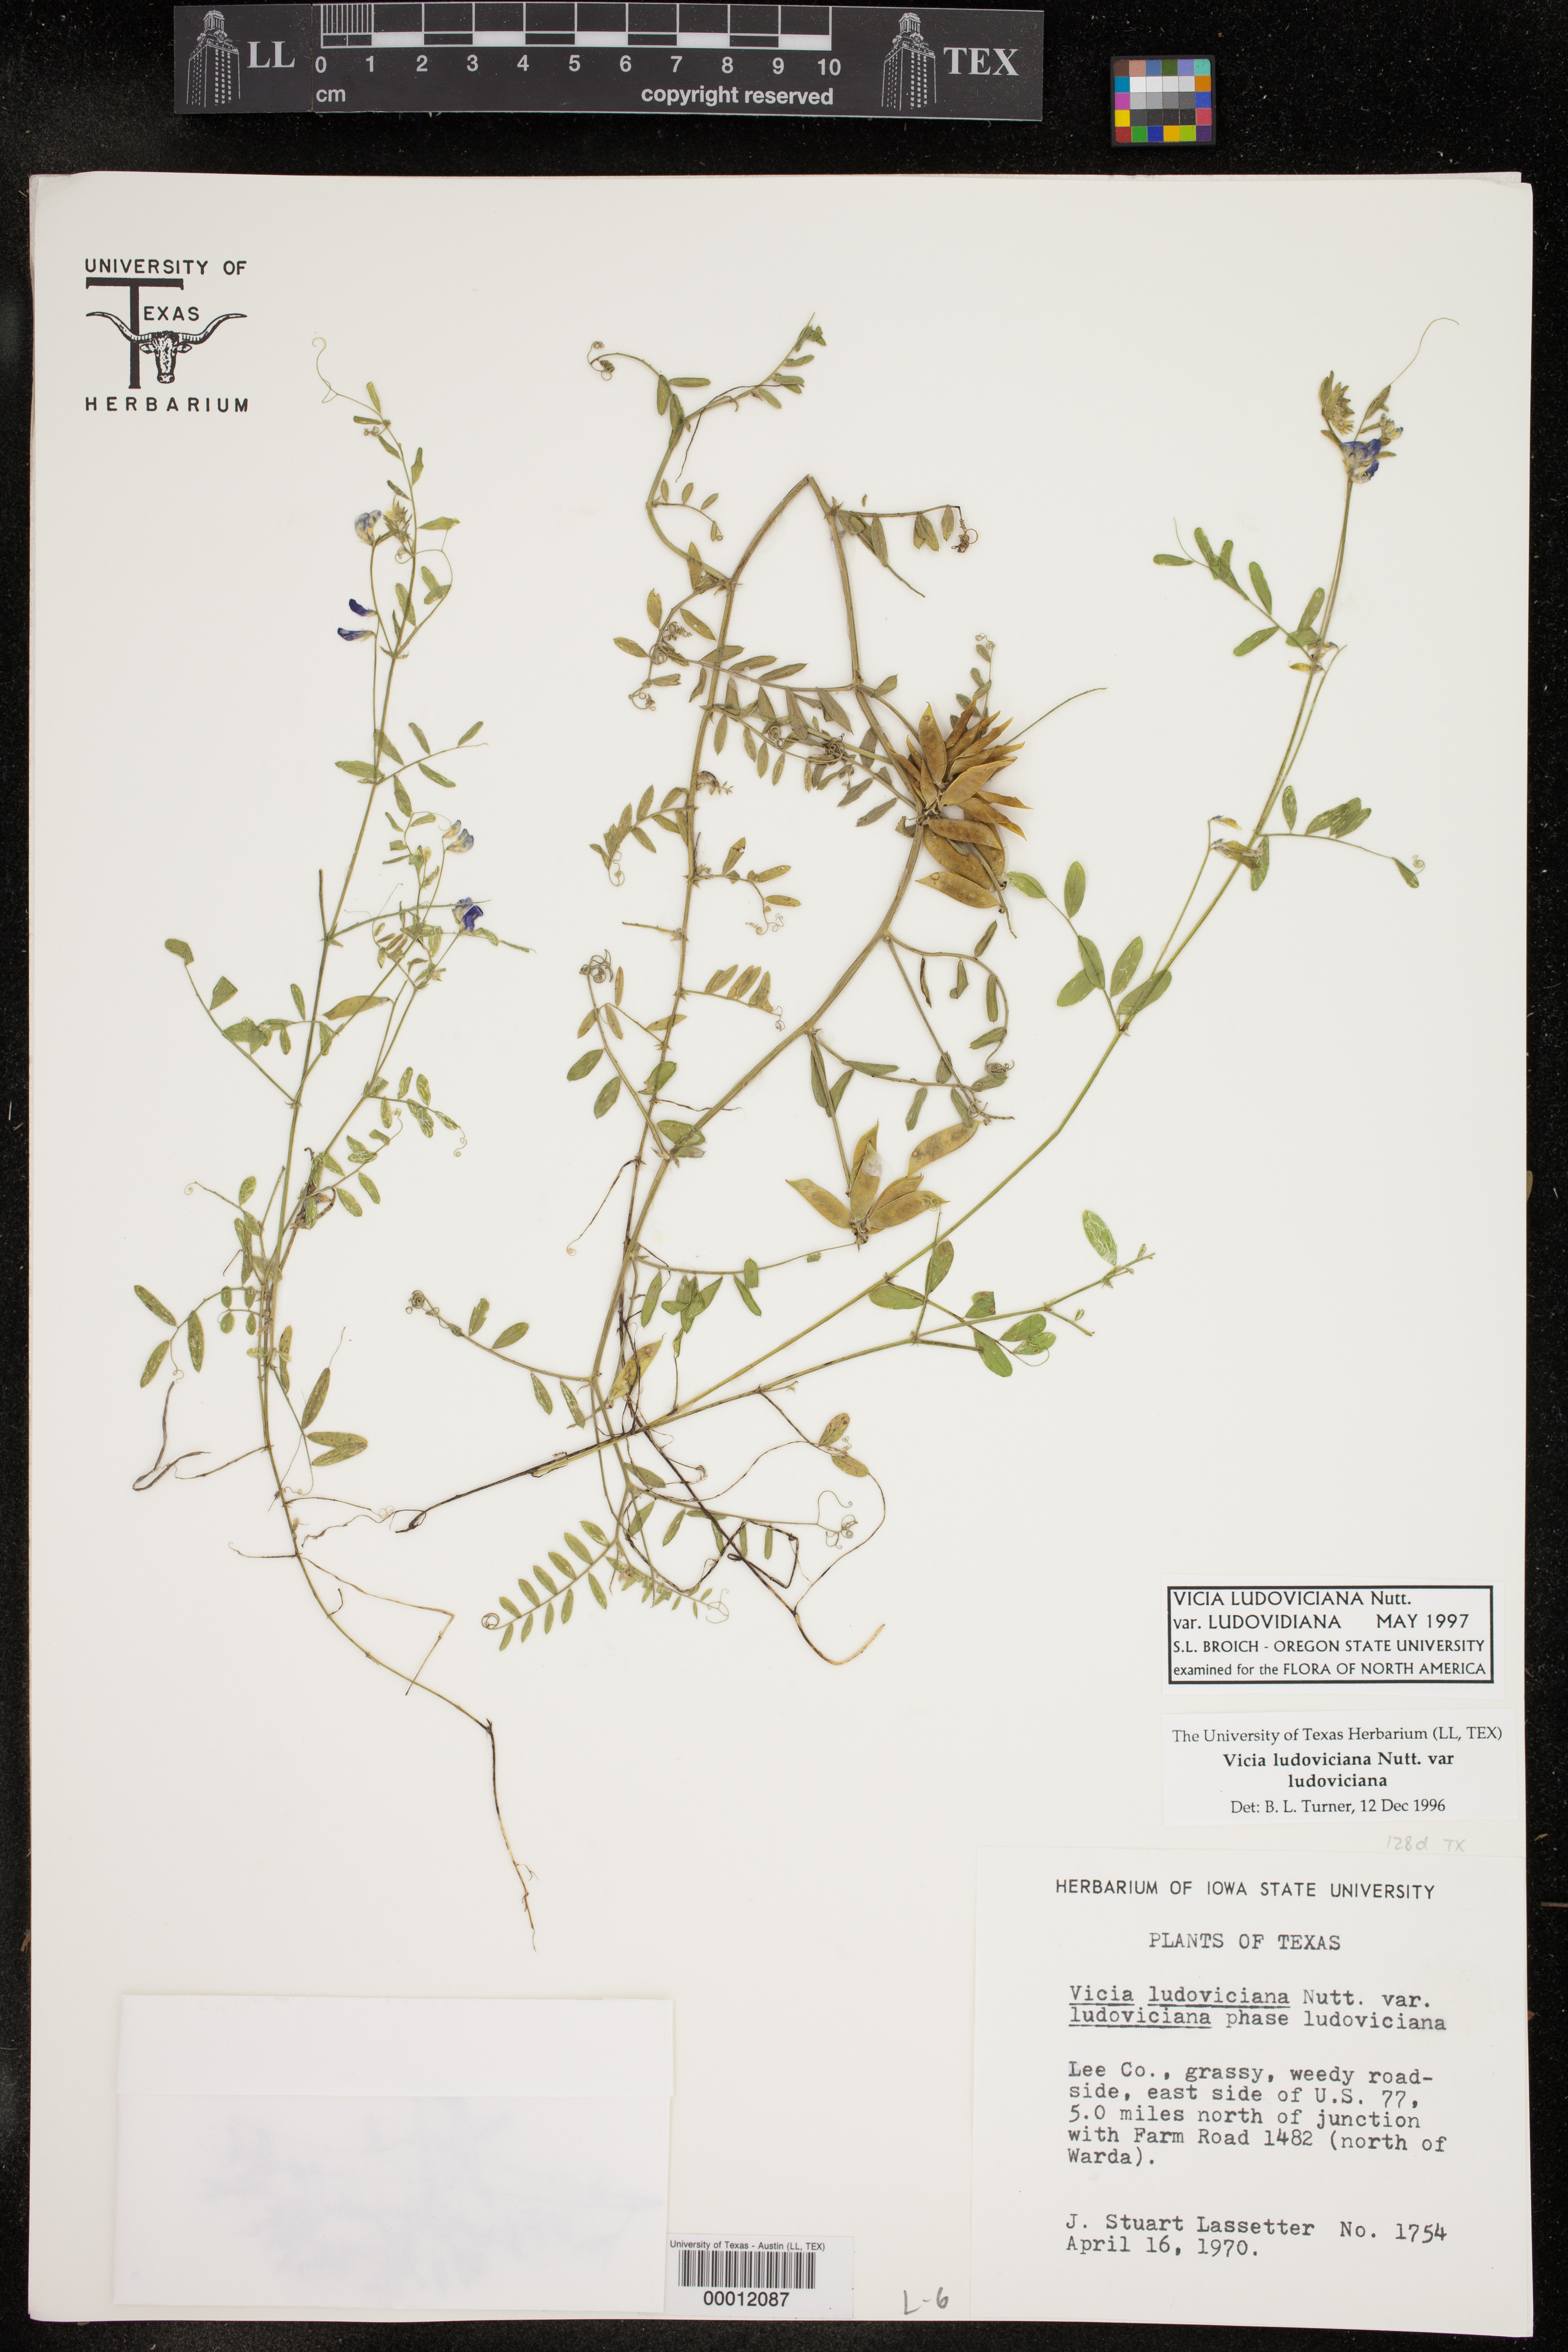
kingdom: Plantae
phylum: Tracheophyta
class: Magnoliopsida
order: Fabales
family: Fabaceae
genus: Vicia
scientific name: Vicia ludoviciana
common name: Louisiana vetch
